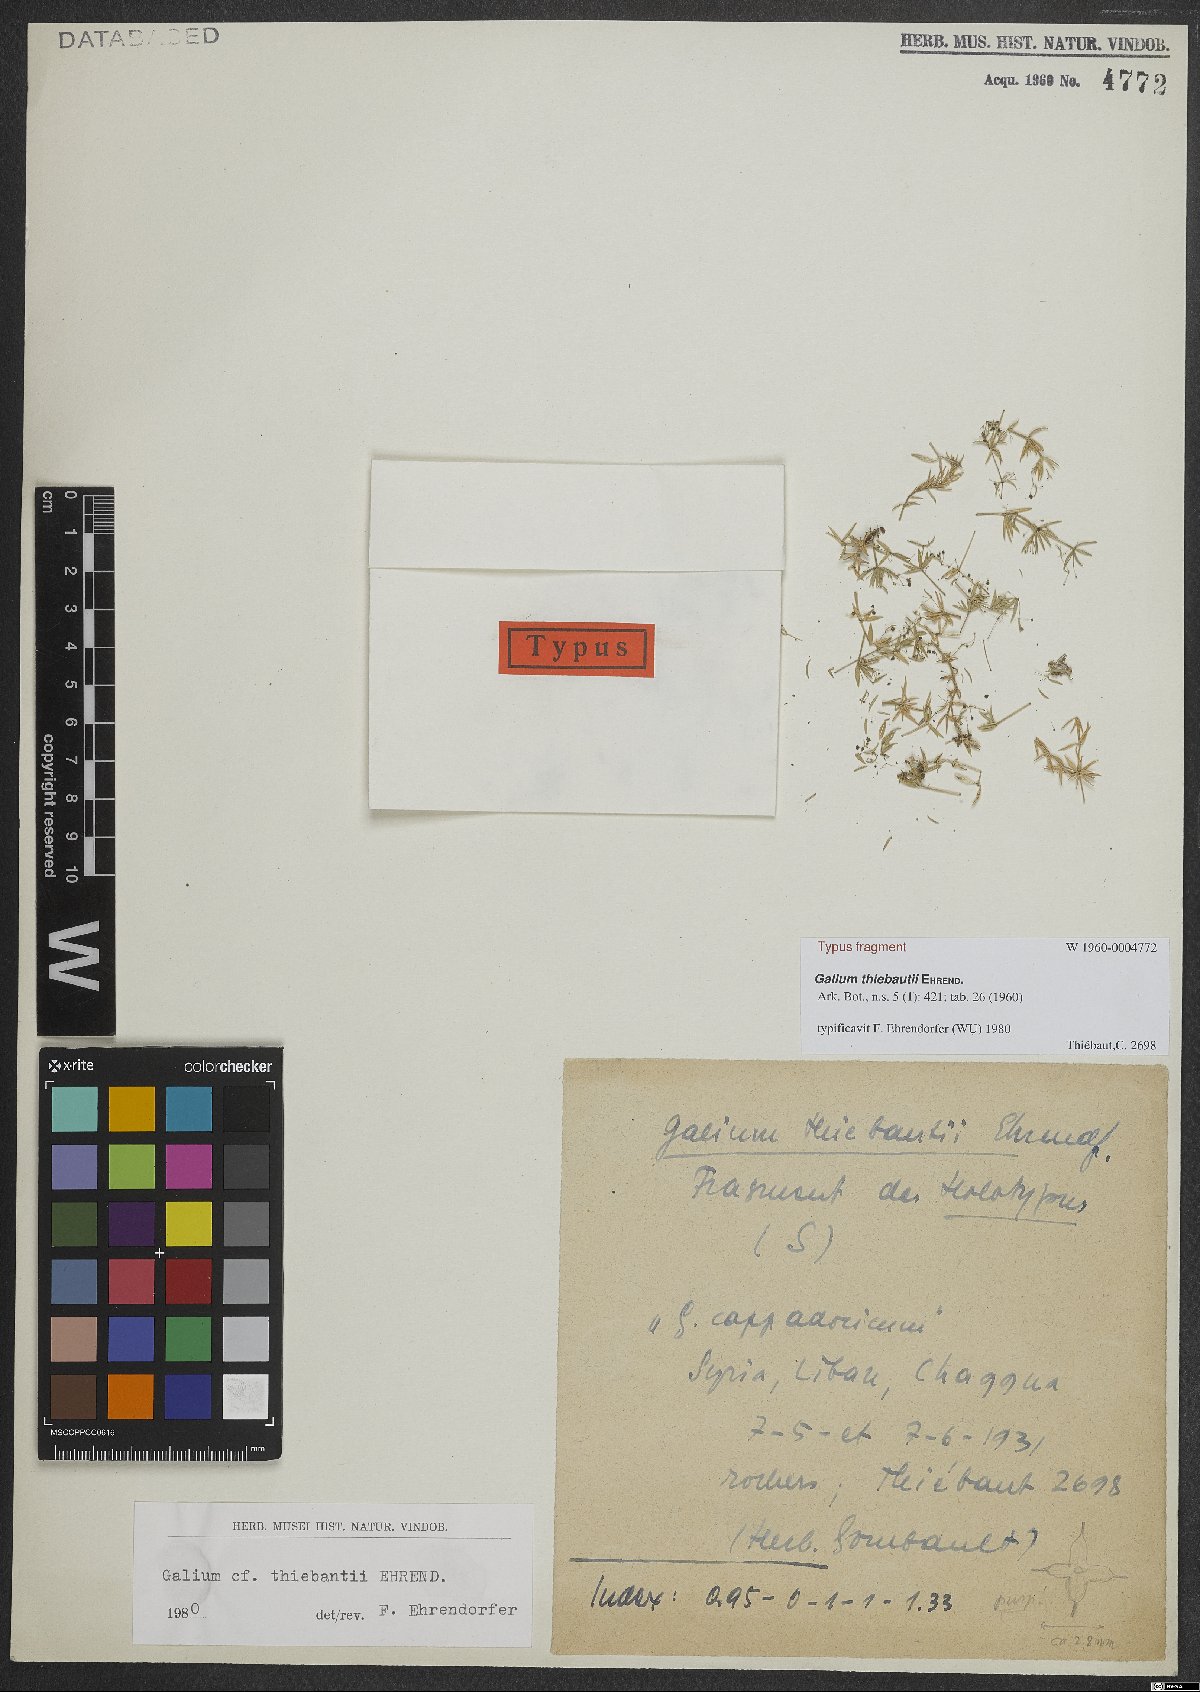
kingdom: Plantae
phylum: Tracheophyta
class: Magnoliopsida
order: Gentianales
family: Rubiaceae
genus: Galium
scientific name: Galium thiebautii
